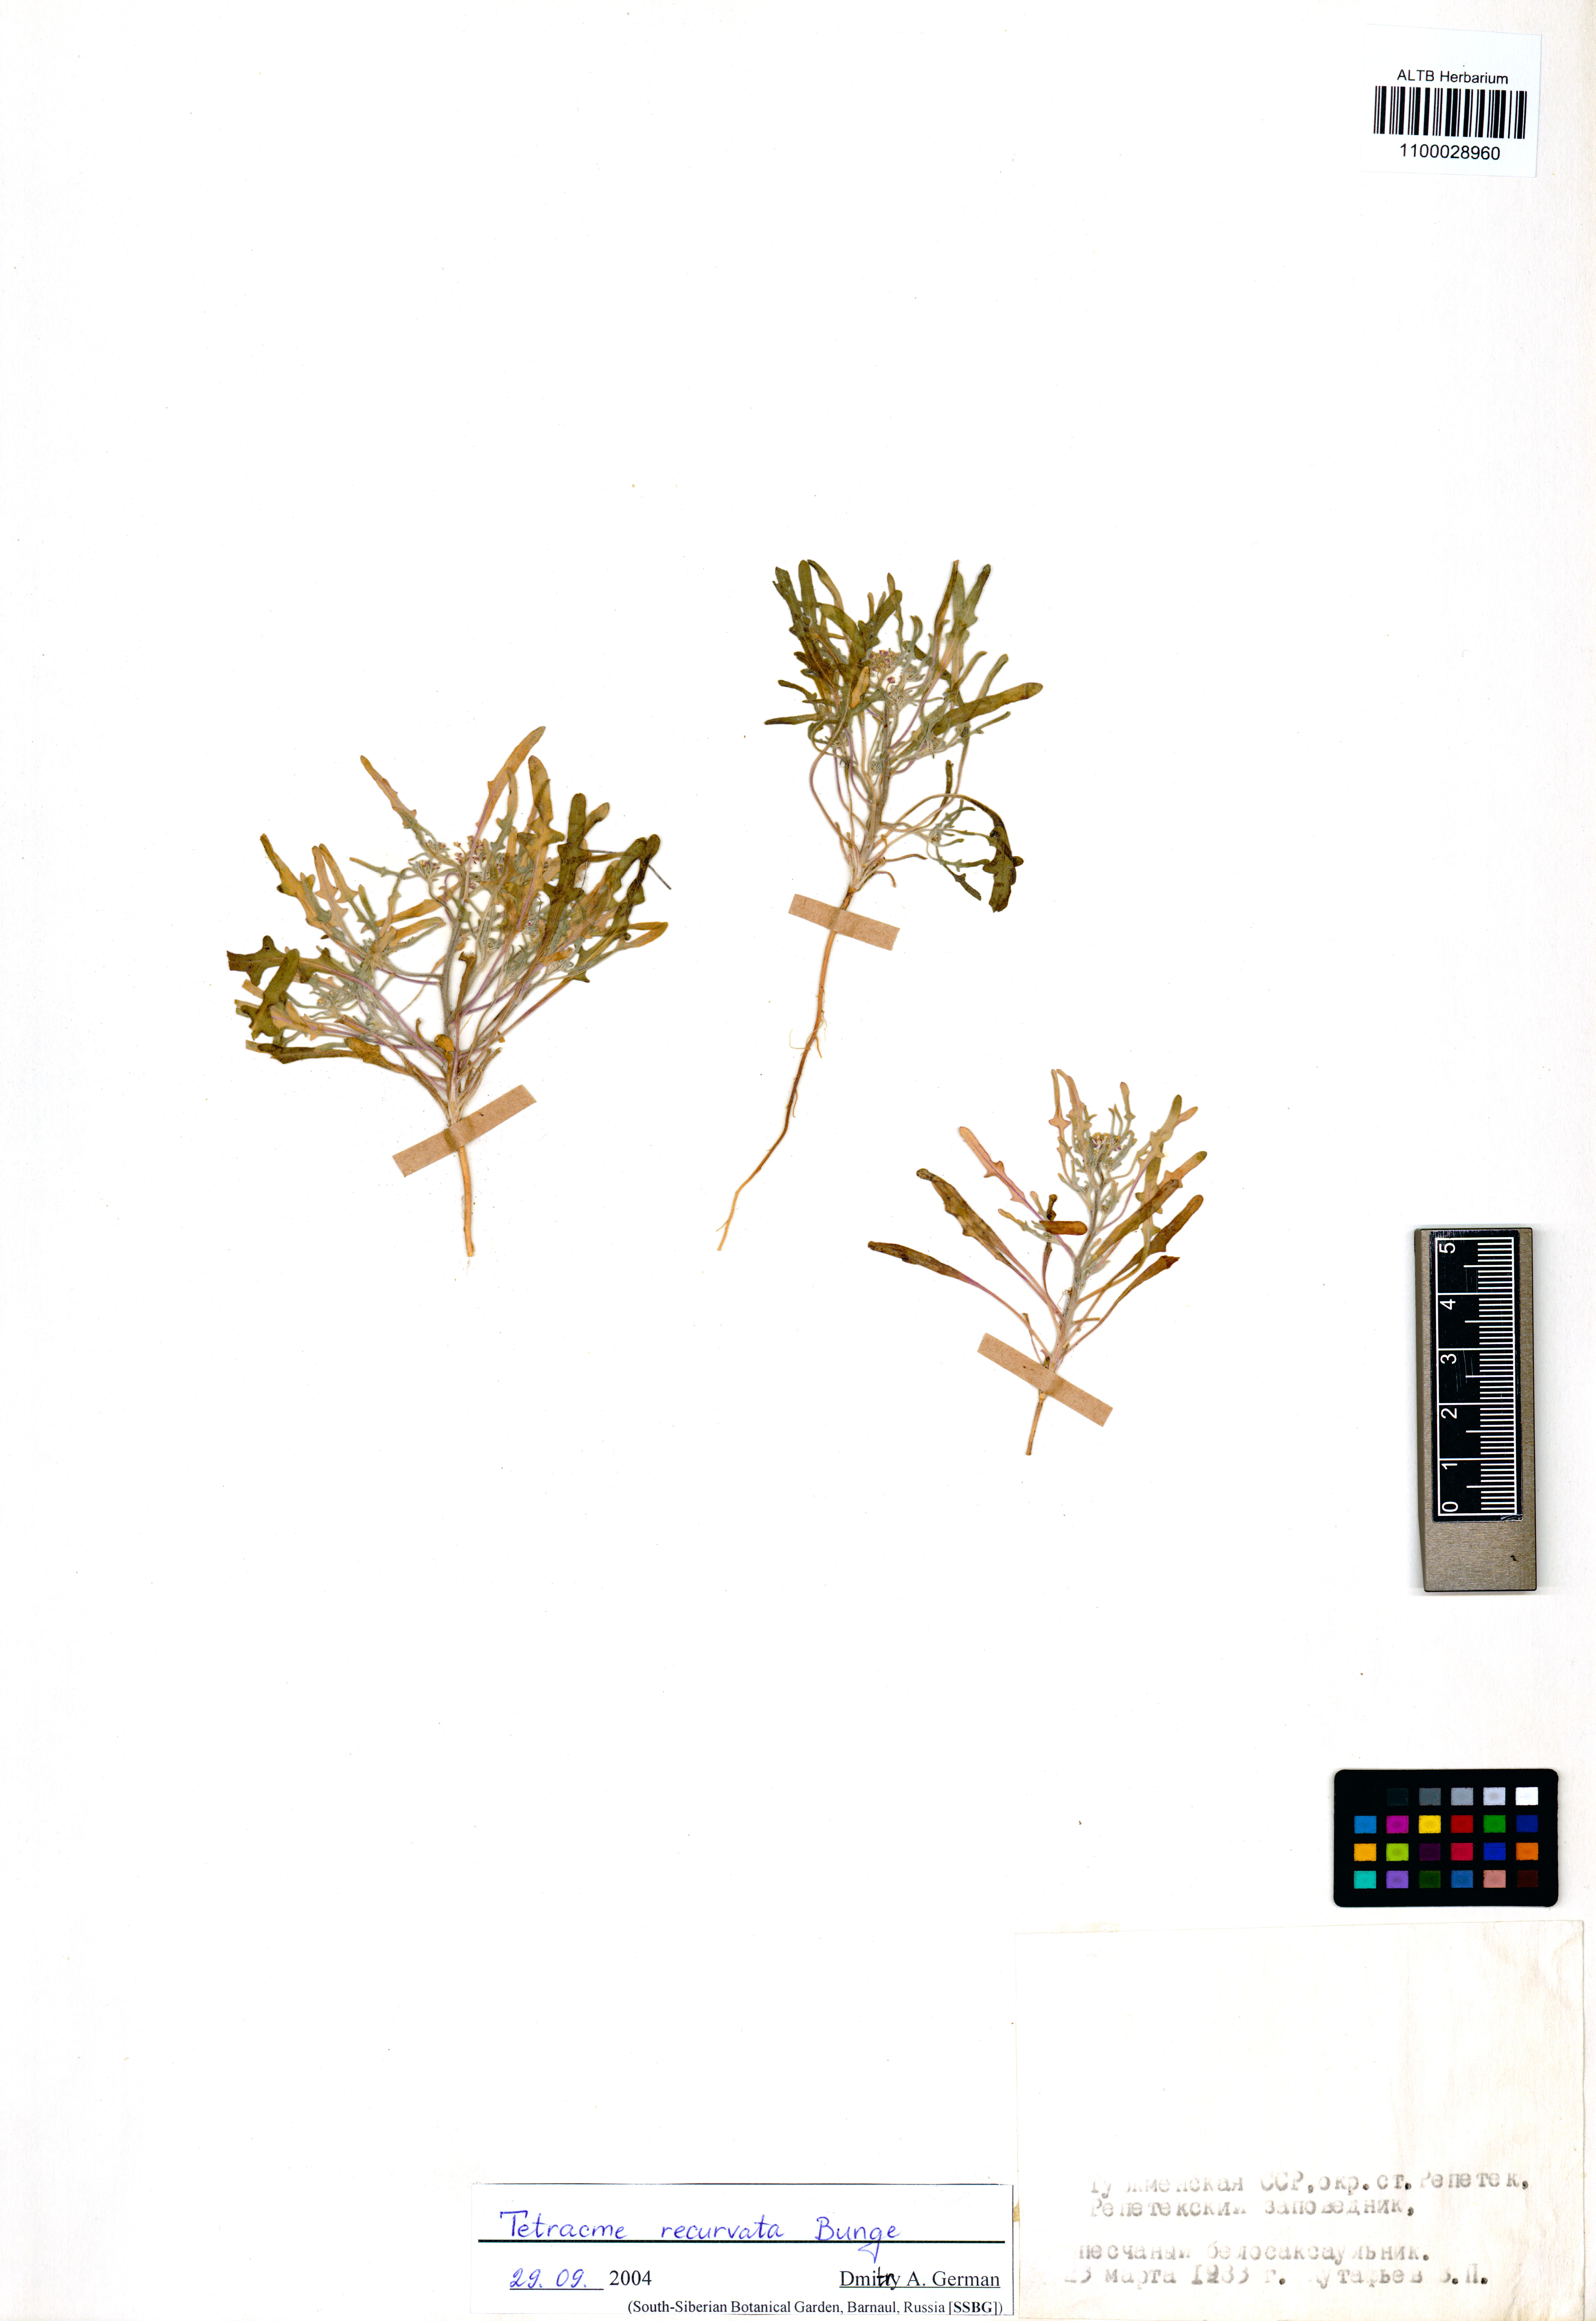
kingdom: Plantae
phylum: Tracheophyta
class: Magnoliopsida
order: Brassicales
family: Brassicaceae
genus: Tetracme
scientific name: Tetracme recurvata
